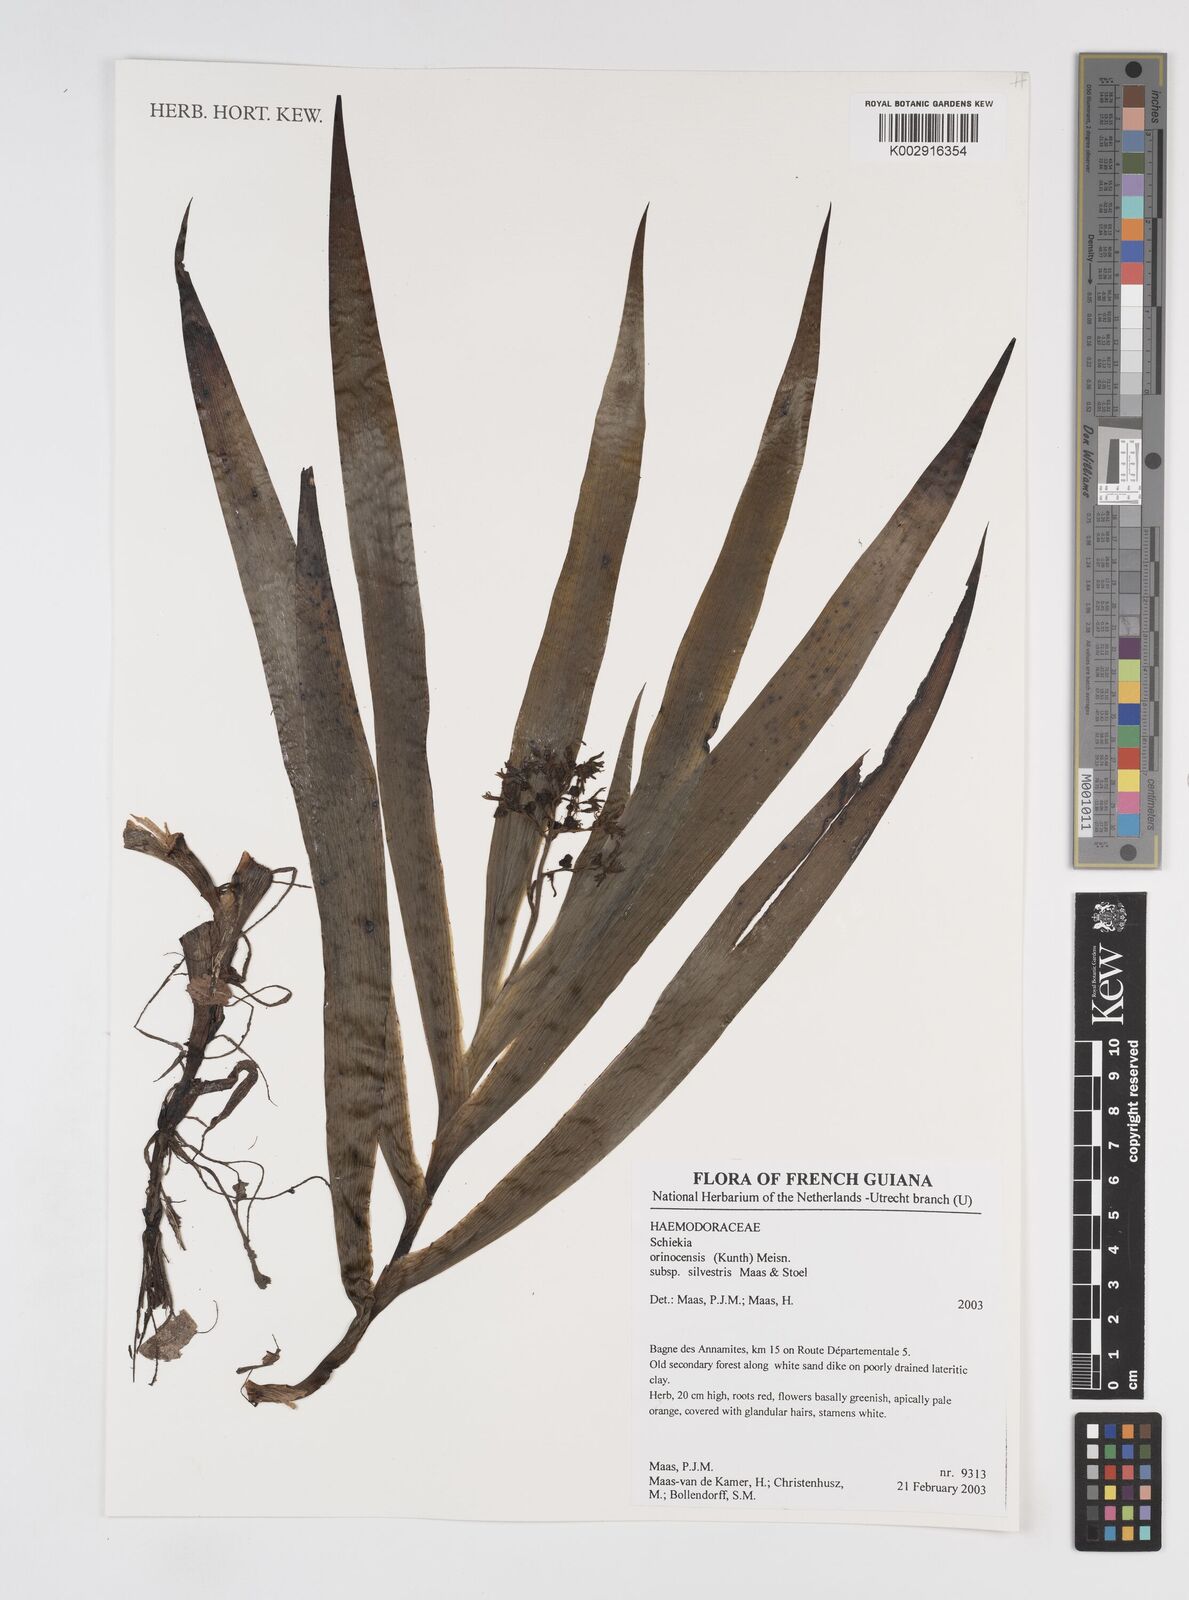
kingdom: Plantae
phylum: Tracheophyta
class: Liliopsida
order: Commelinales
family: Haemodoraceae
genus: Schiekia
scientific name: Schiekia silvestris
